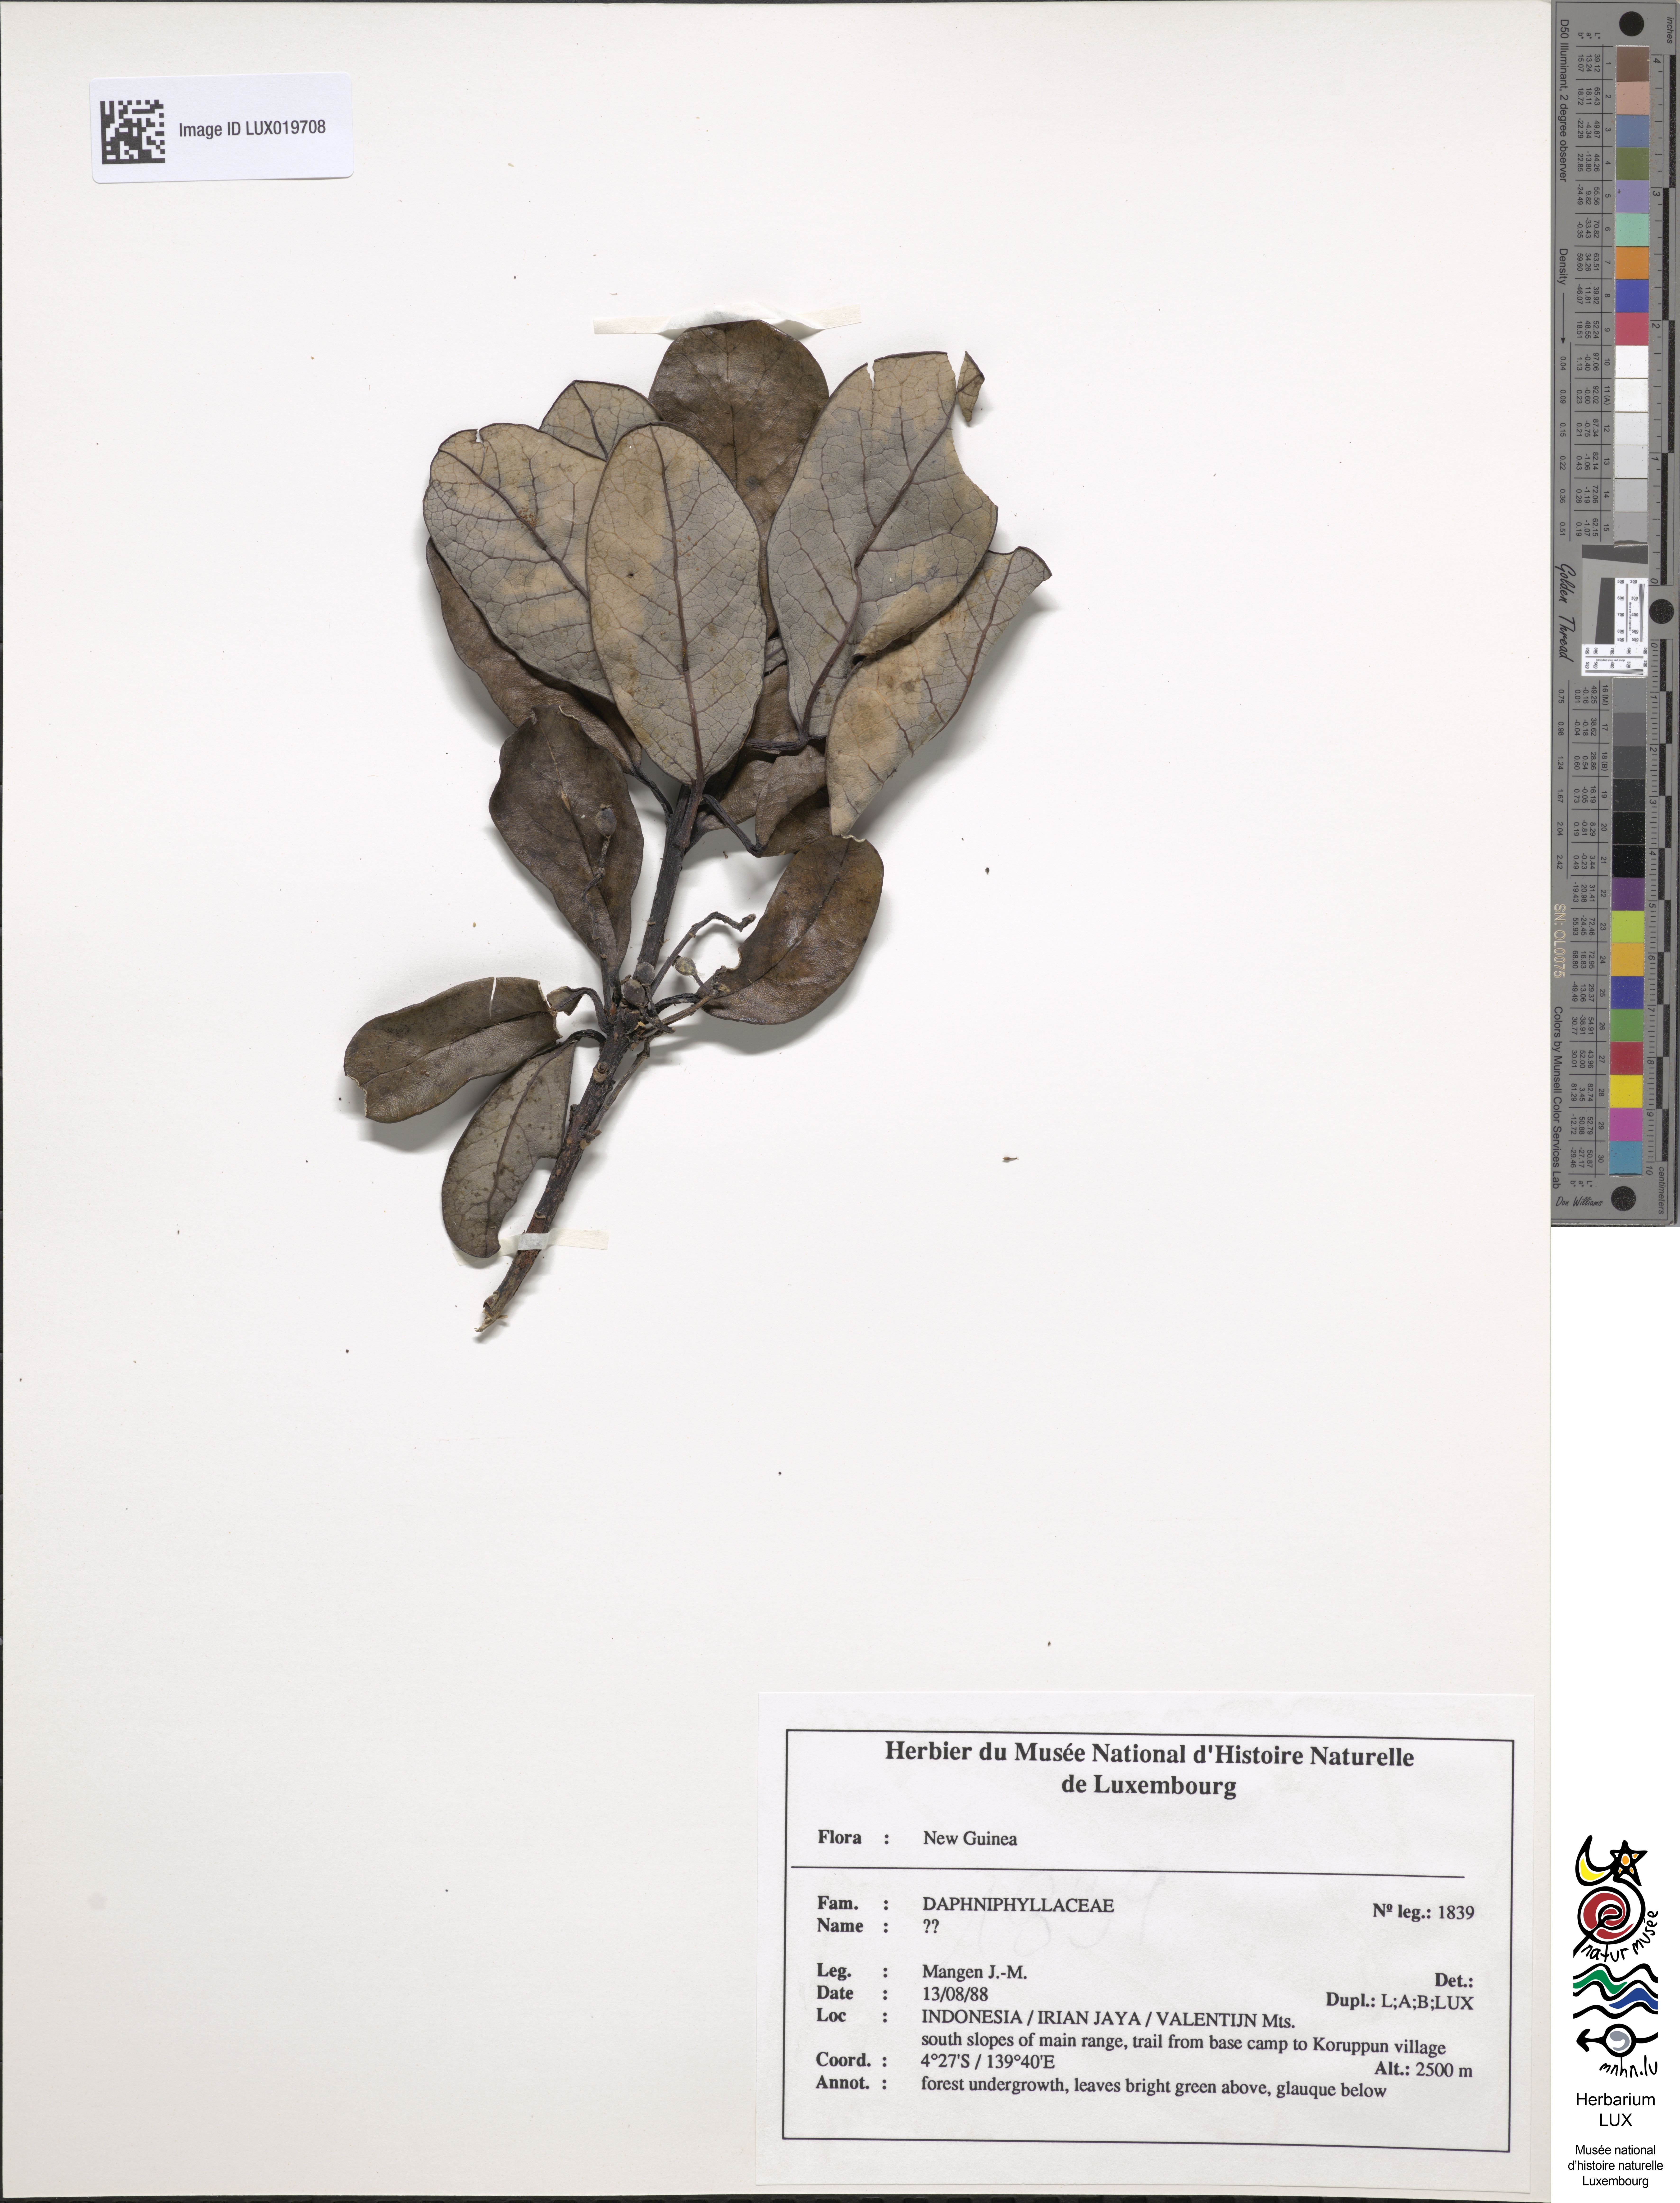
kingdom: Plantae
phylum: Tracheophyta
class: Magnoliopsida
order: Saxifragales
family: Daphniphyllaceae
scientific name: Daphniphyllaceae
